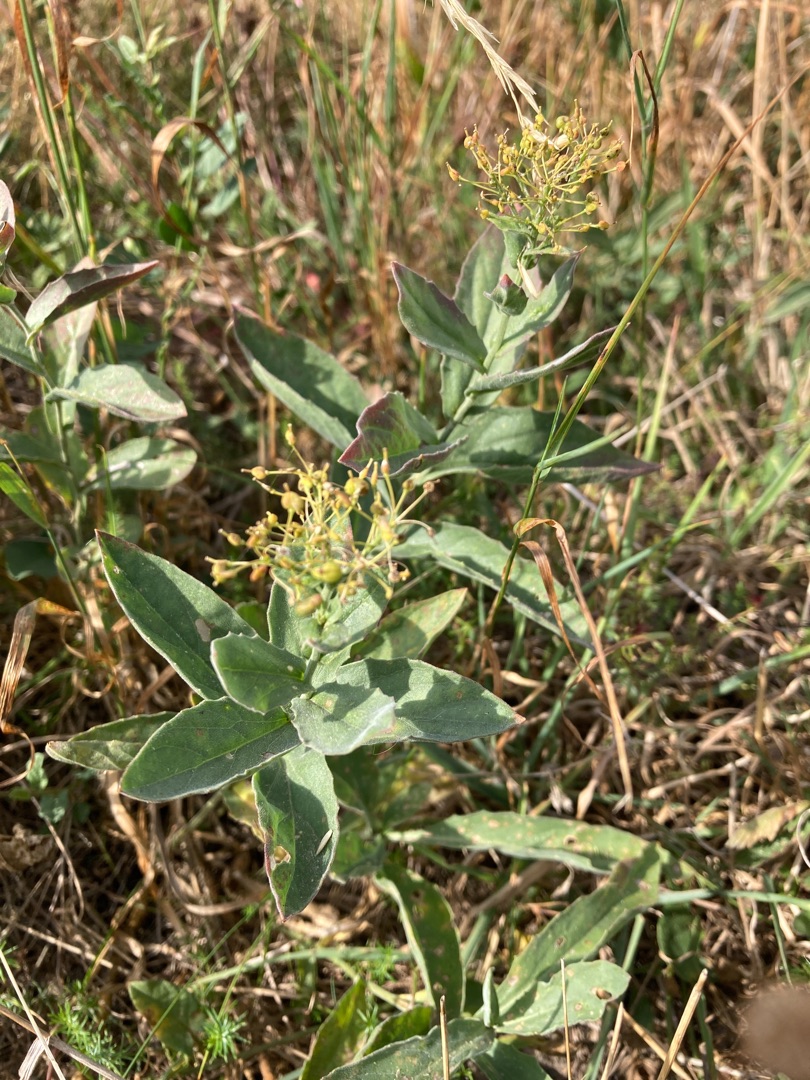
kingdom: Plantae
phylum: Tracheophyta
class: Magnoliopsida
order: Brassicales
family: Brassicaceae
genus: Lepidium
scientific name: Lepidium draba
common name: Hjerte-karse
